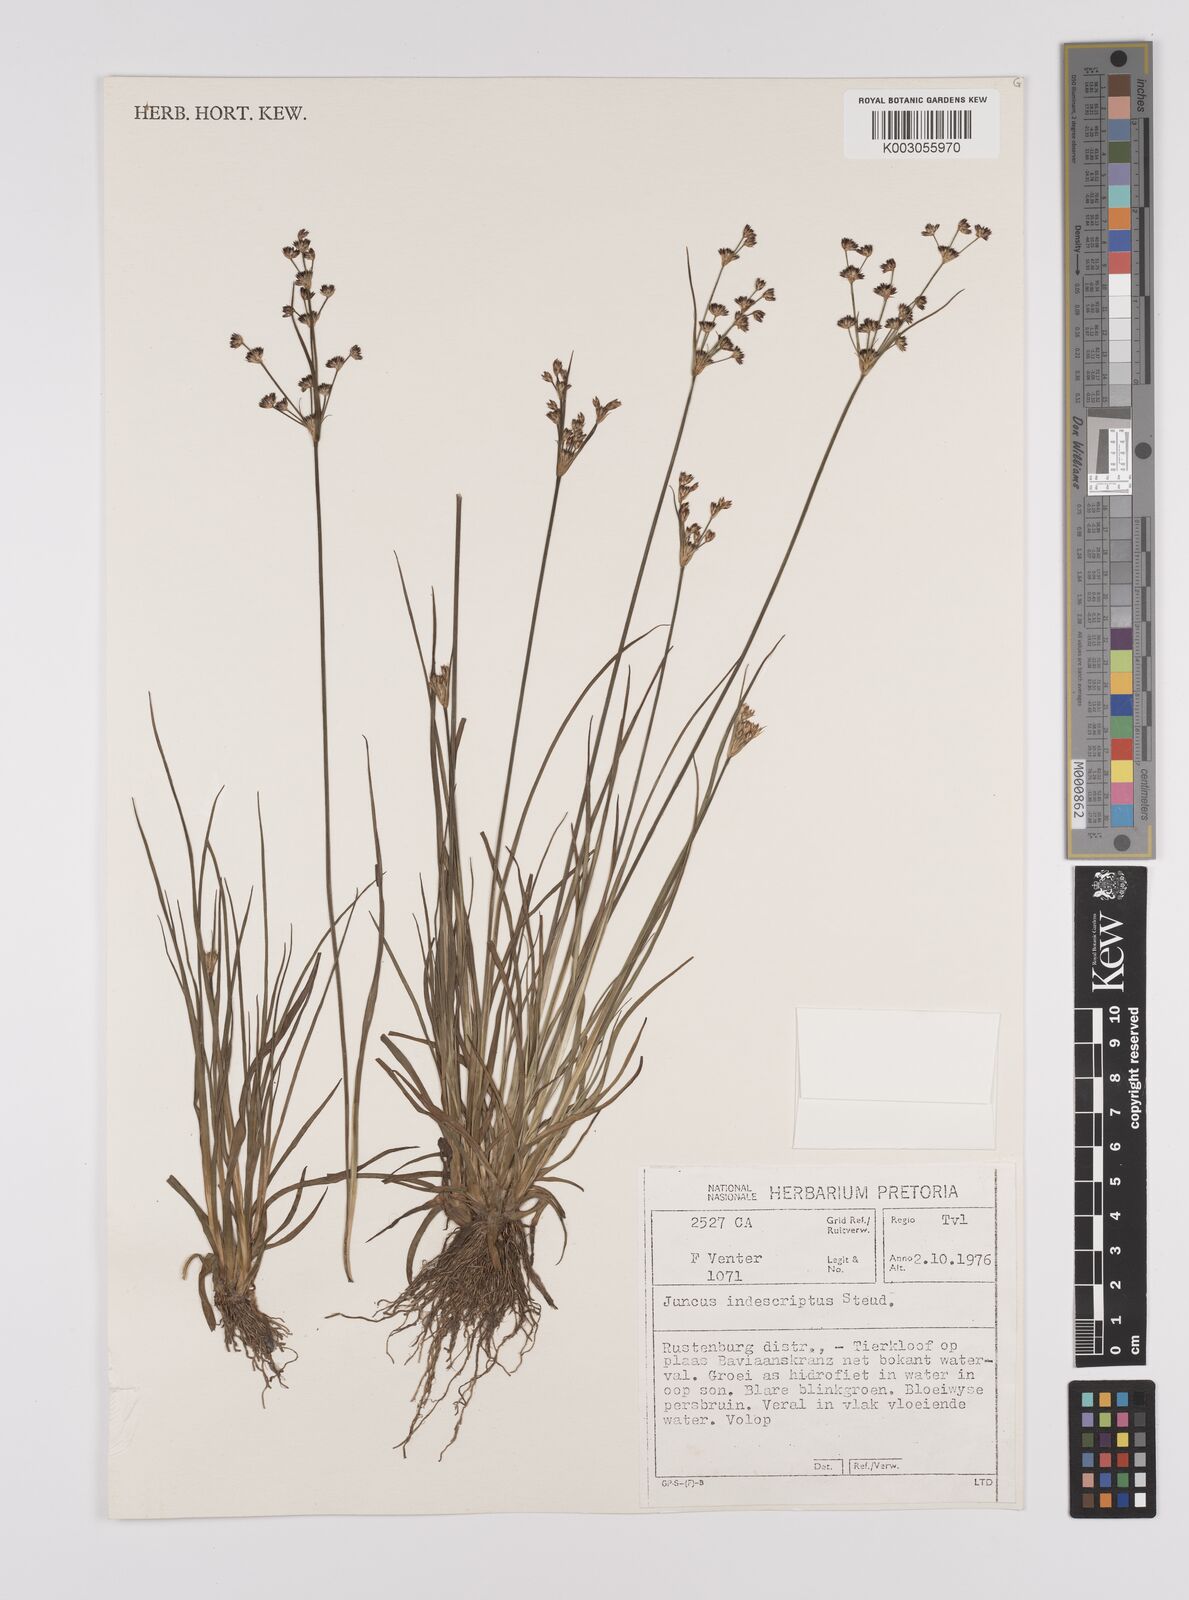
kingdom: Plantae
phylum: Tracheophyta
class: Liliopsida
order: Poales
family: Juncaceae
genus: Juncus
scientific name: Juncus capensis
